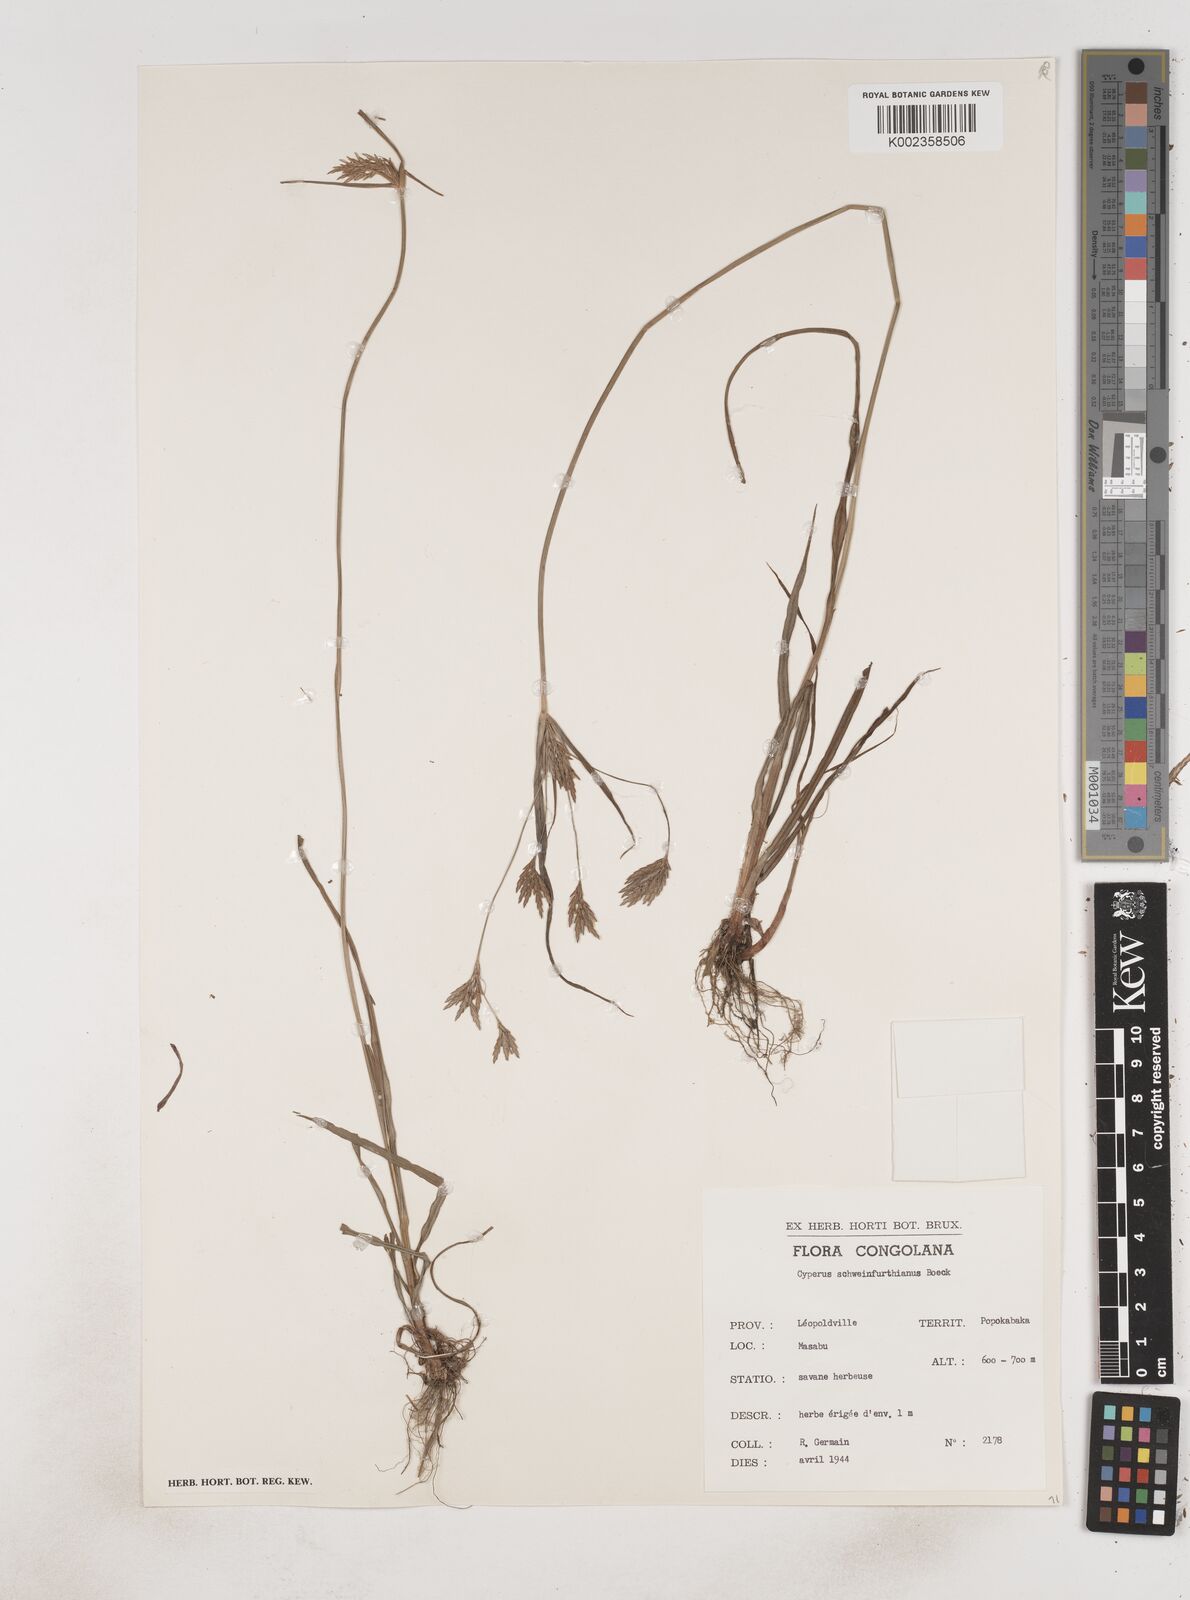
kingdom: Plantae
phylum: Tracheophyta
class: Liliopsida
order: Poales
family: Cyperaceae
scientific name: Cyperaceae
